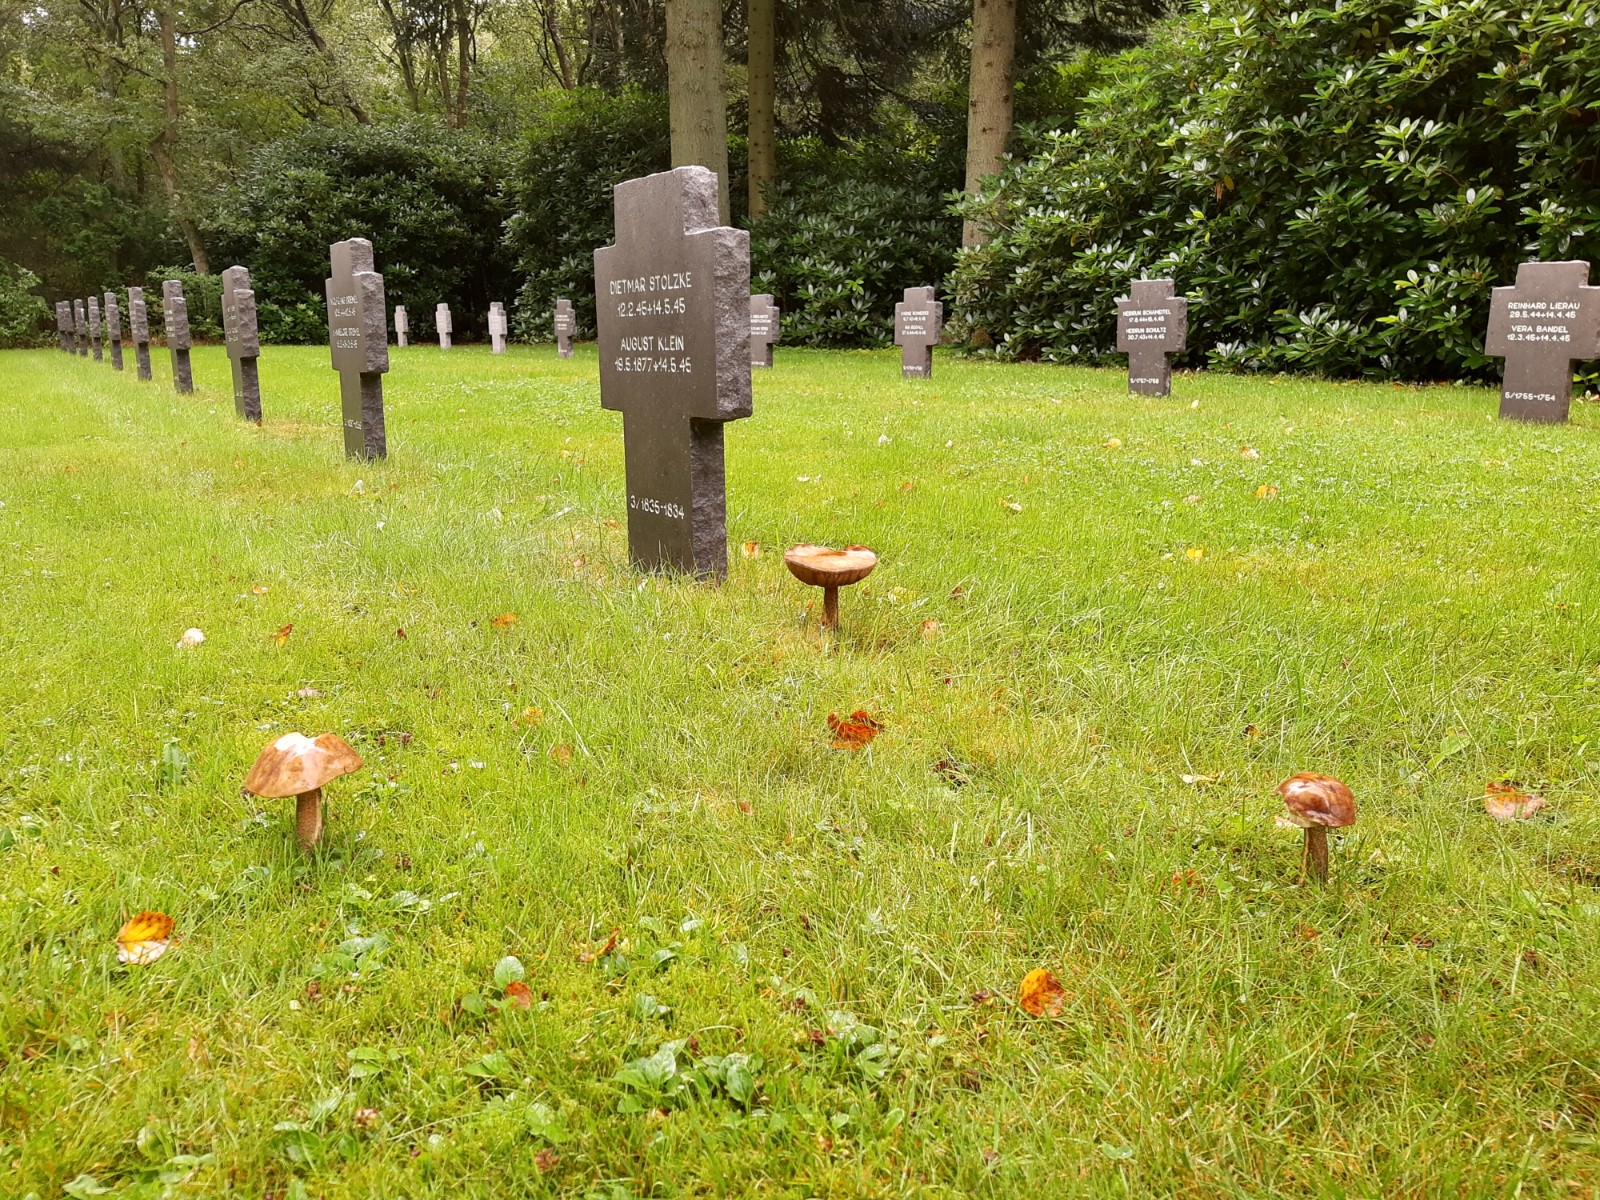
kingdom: Fungi
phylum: Basidiomycota
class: Agaricomycetes
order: Boletales
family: Boletaceae
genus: Leccinum
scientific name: Leccinum scabrum
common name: brun skælrørhat
